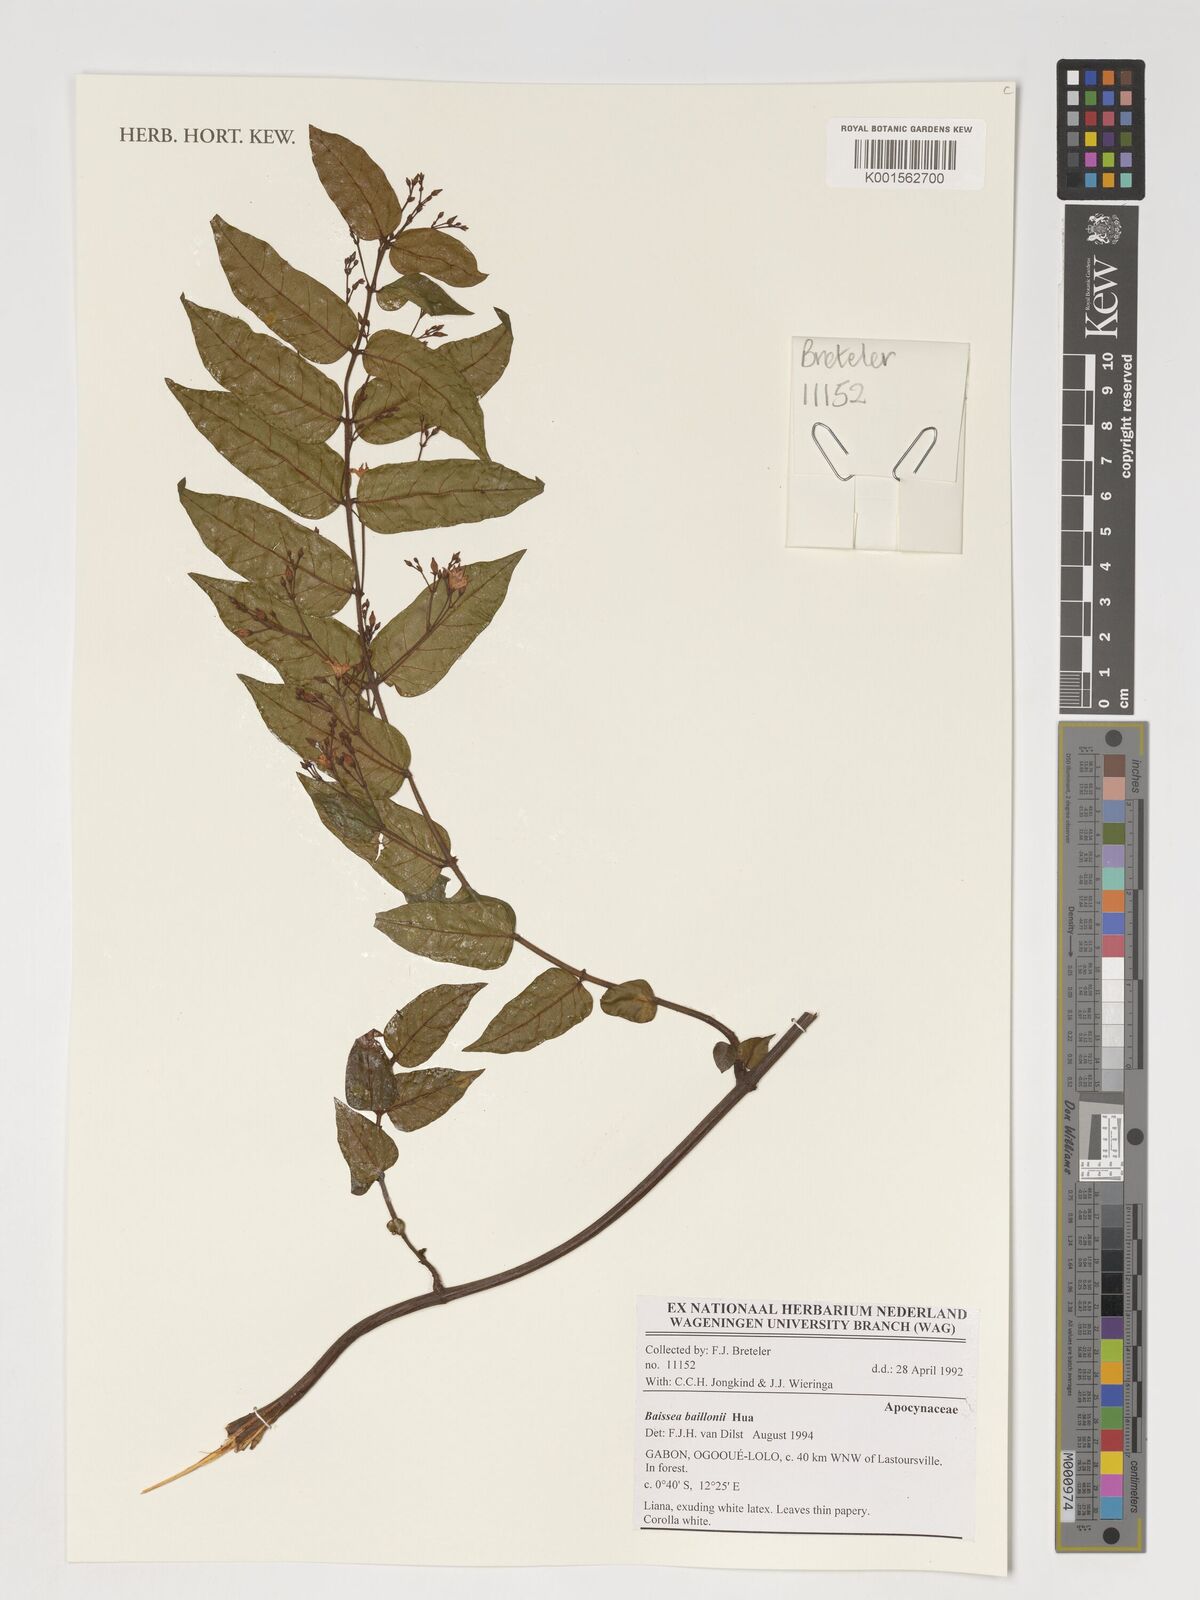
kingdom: Plantae
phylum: Tracheophyta
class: Magnoliopsida
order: Gentianales
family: Apocynaceae
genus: Baissea
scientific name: Baissea baillonii
